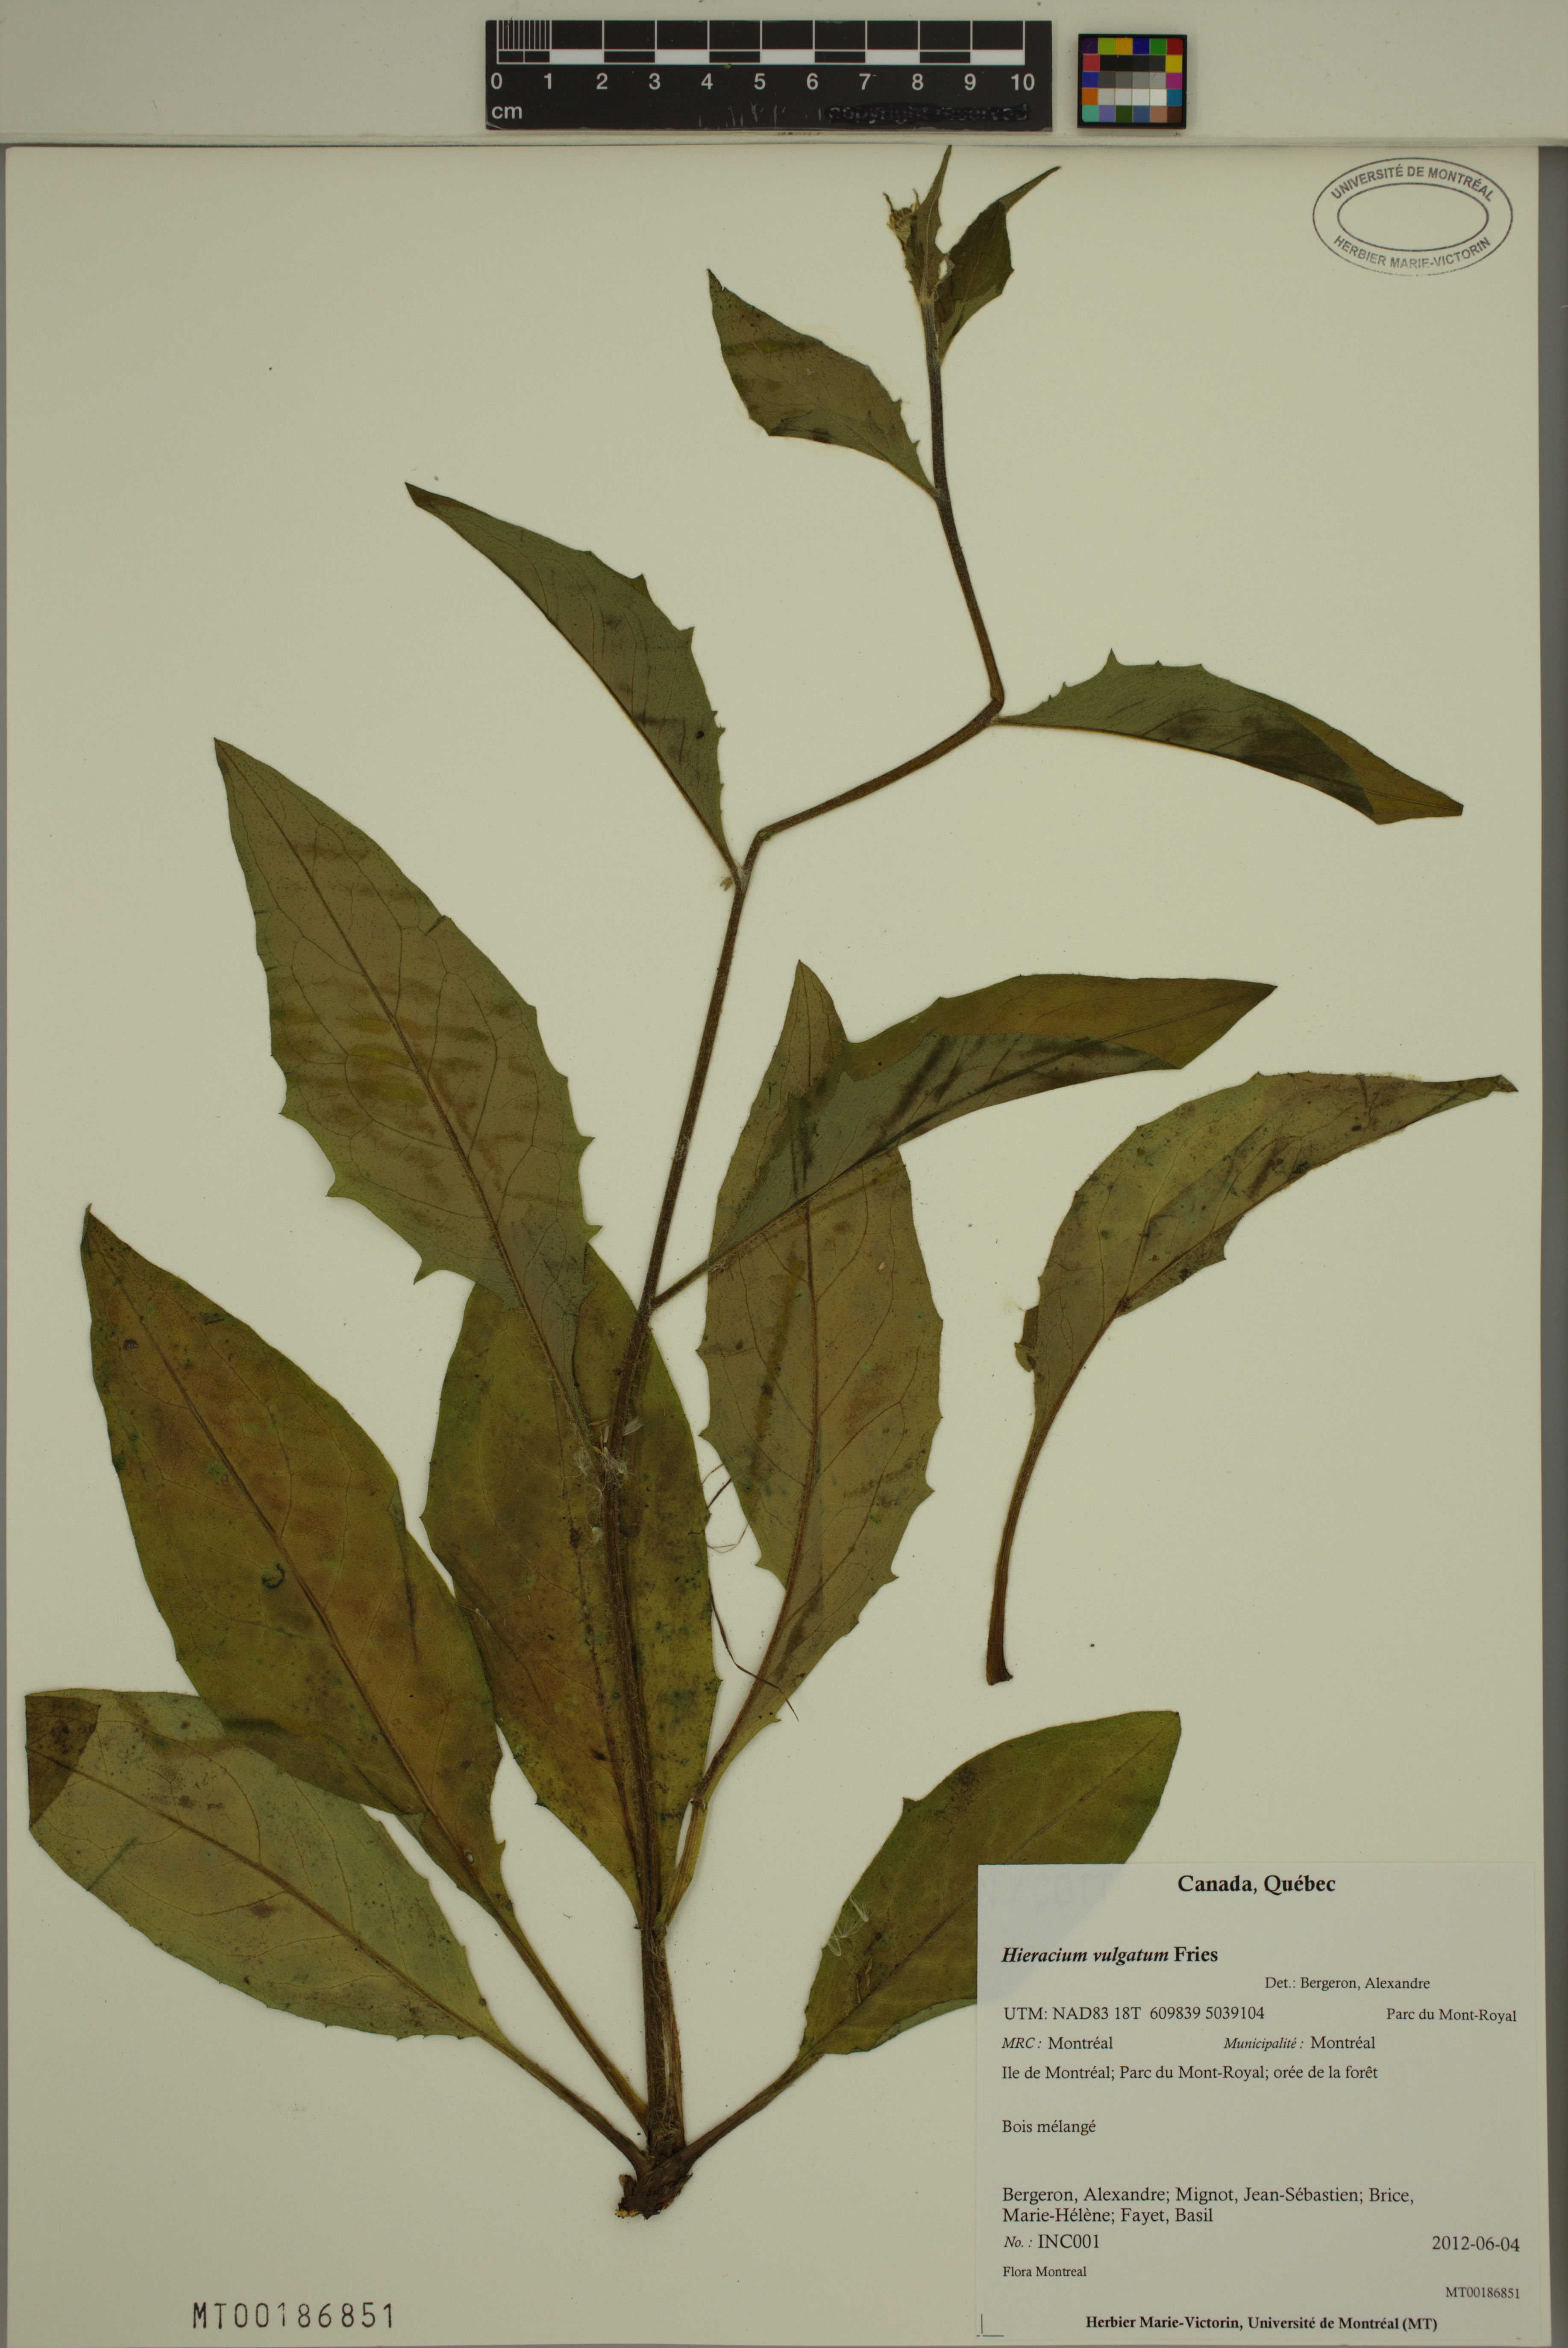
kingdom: Plantae
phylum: Tracheophyta
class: Magnoliopsida
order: Asterales
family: Asteraceae
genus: Hieracium
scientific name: Hieracium lachenalii
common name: Common hawkweed
